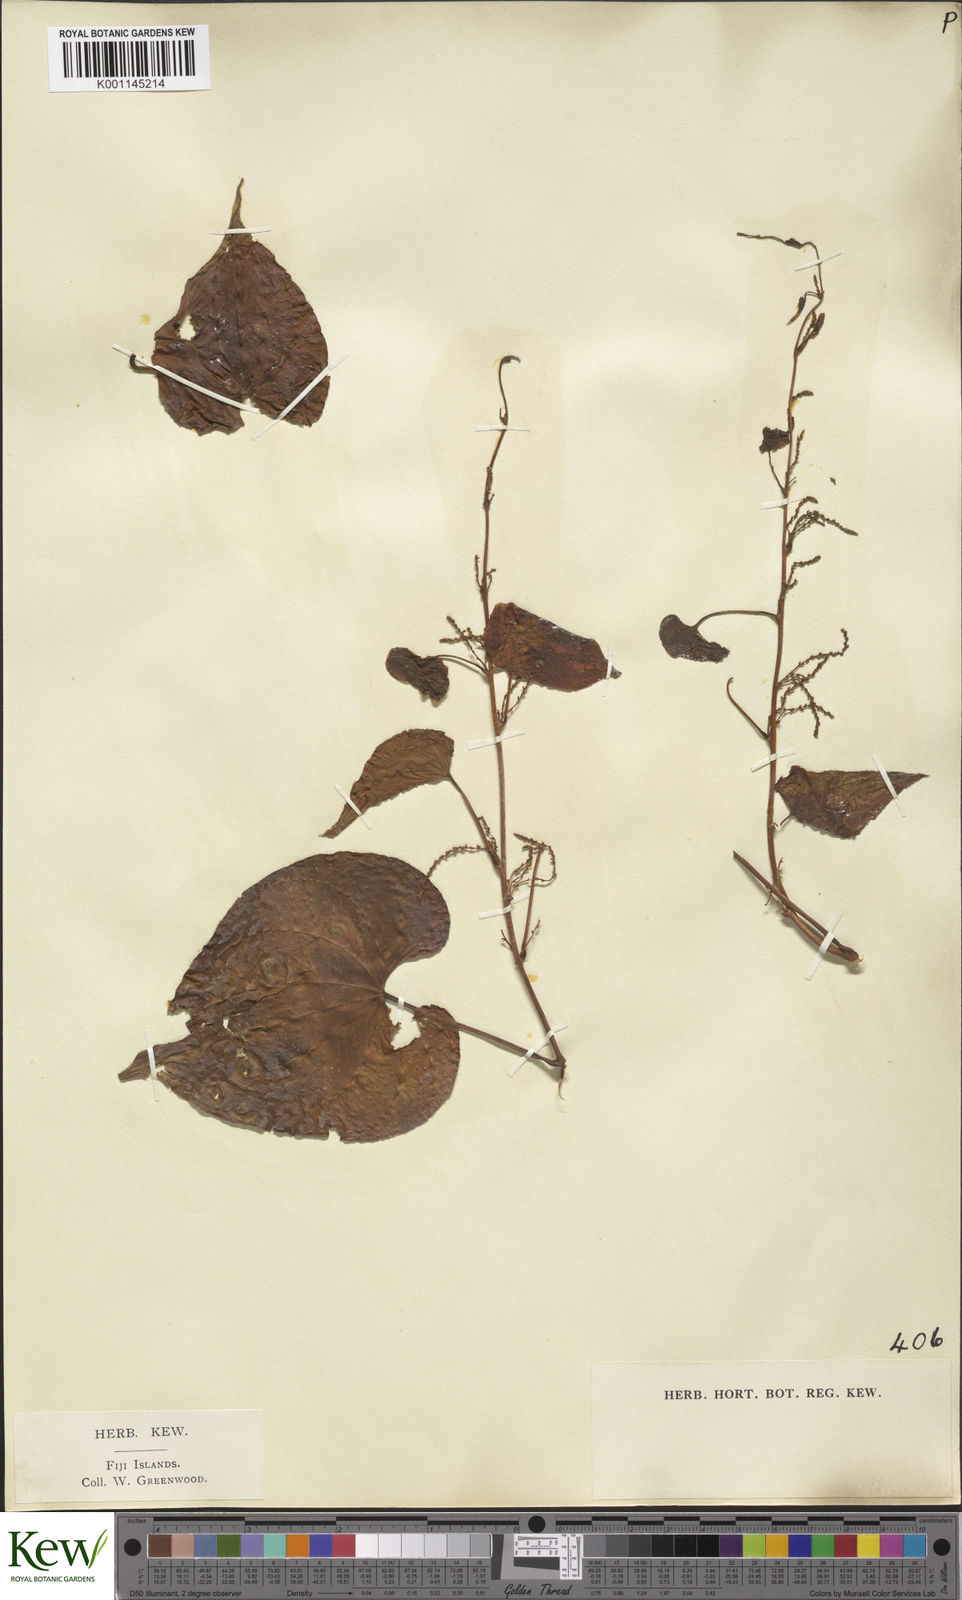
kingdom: Plantae
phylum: Tracheophyta
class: Liliopsida
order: Dioscoreales
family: Dioscoreaceae
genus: Dioscorea
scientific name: Dioscorea bulbifera
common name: Air yam
